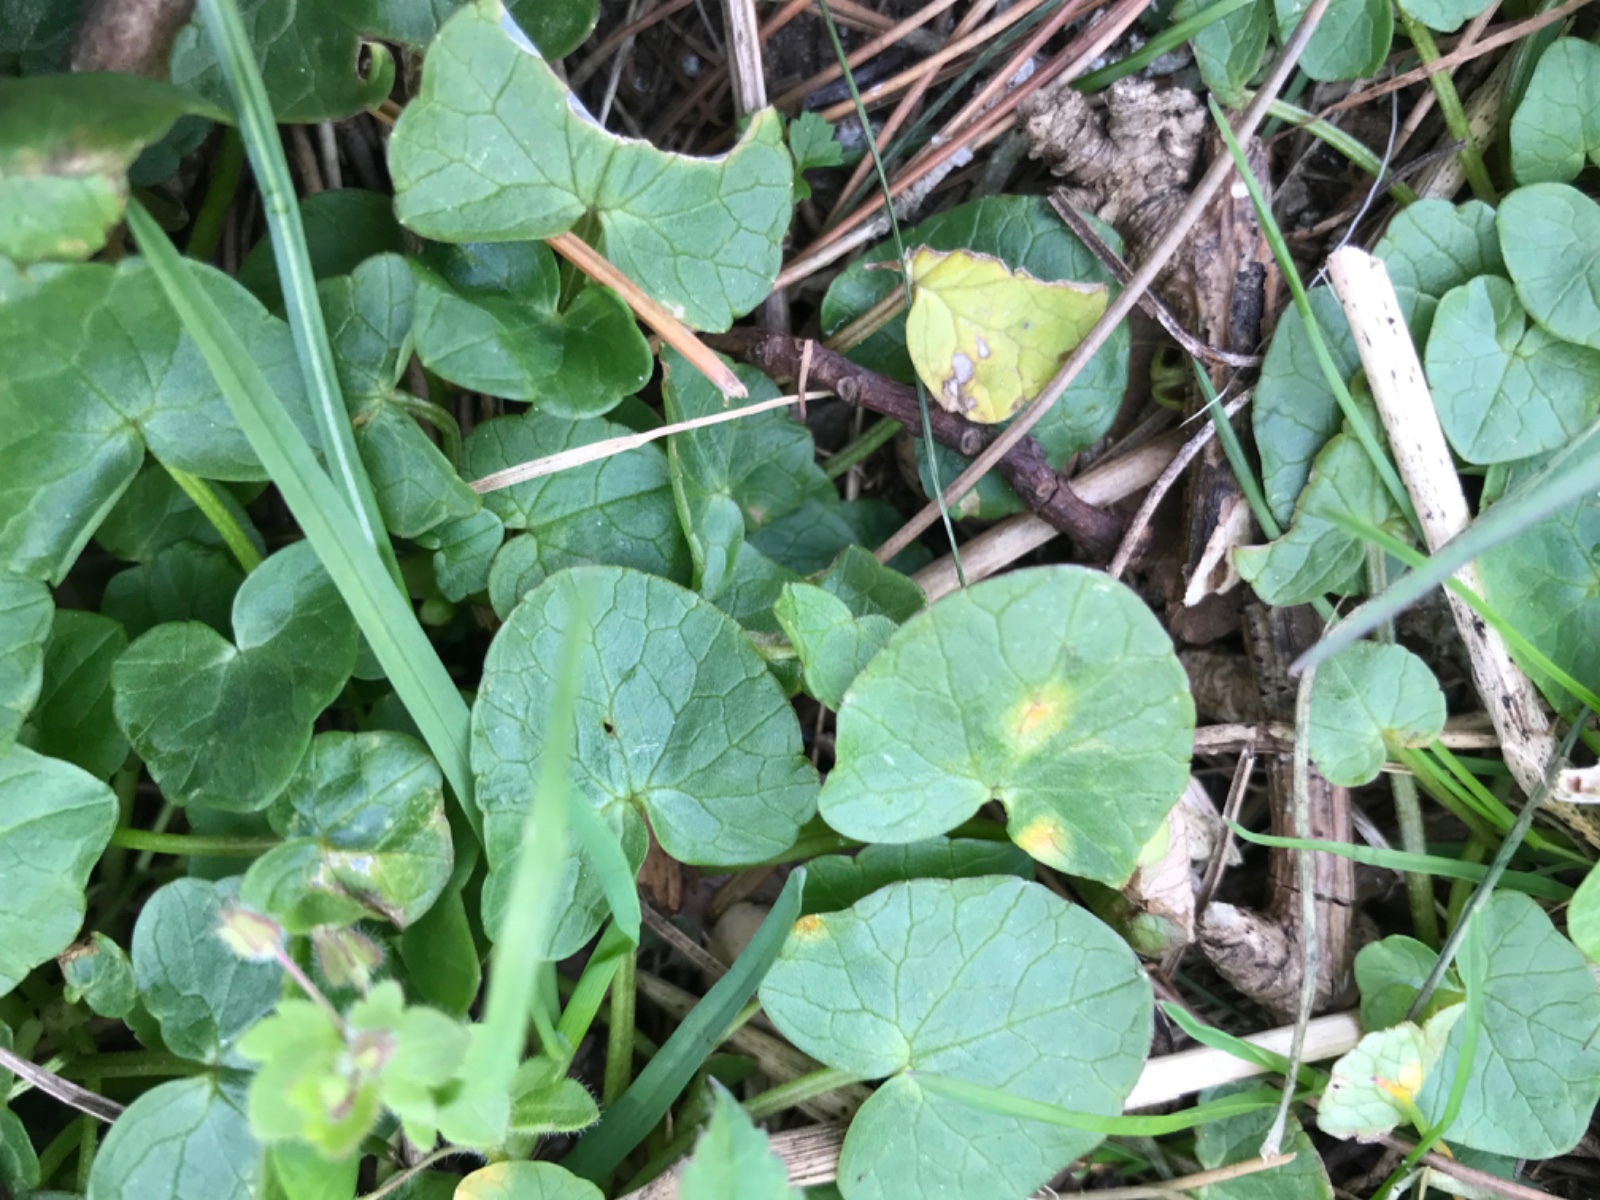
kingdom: Fungi
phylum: Basidiomycota
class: Pucciniomycetes
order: Pucciniales
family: Pucciniaceae
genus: Uromyces
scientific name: Uromyces dactylidis
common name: ranunkel-encellerust
